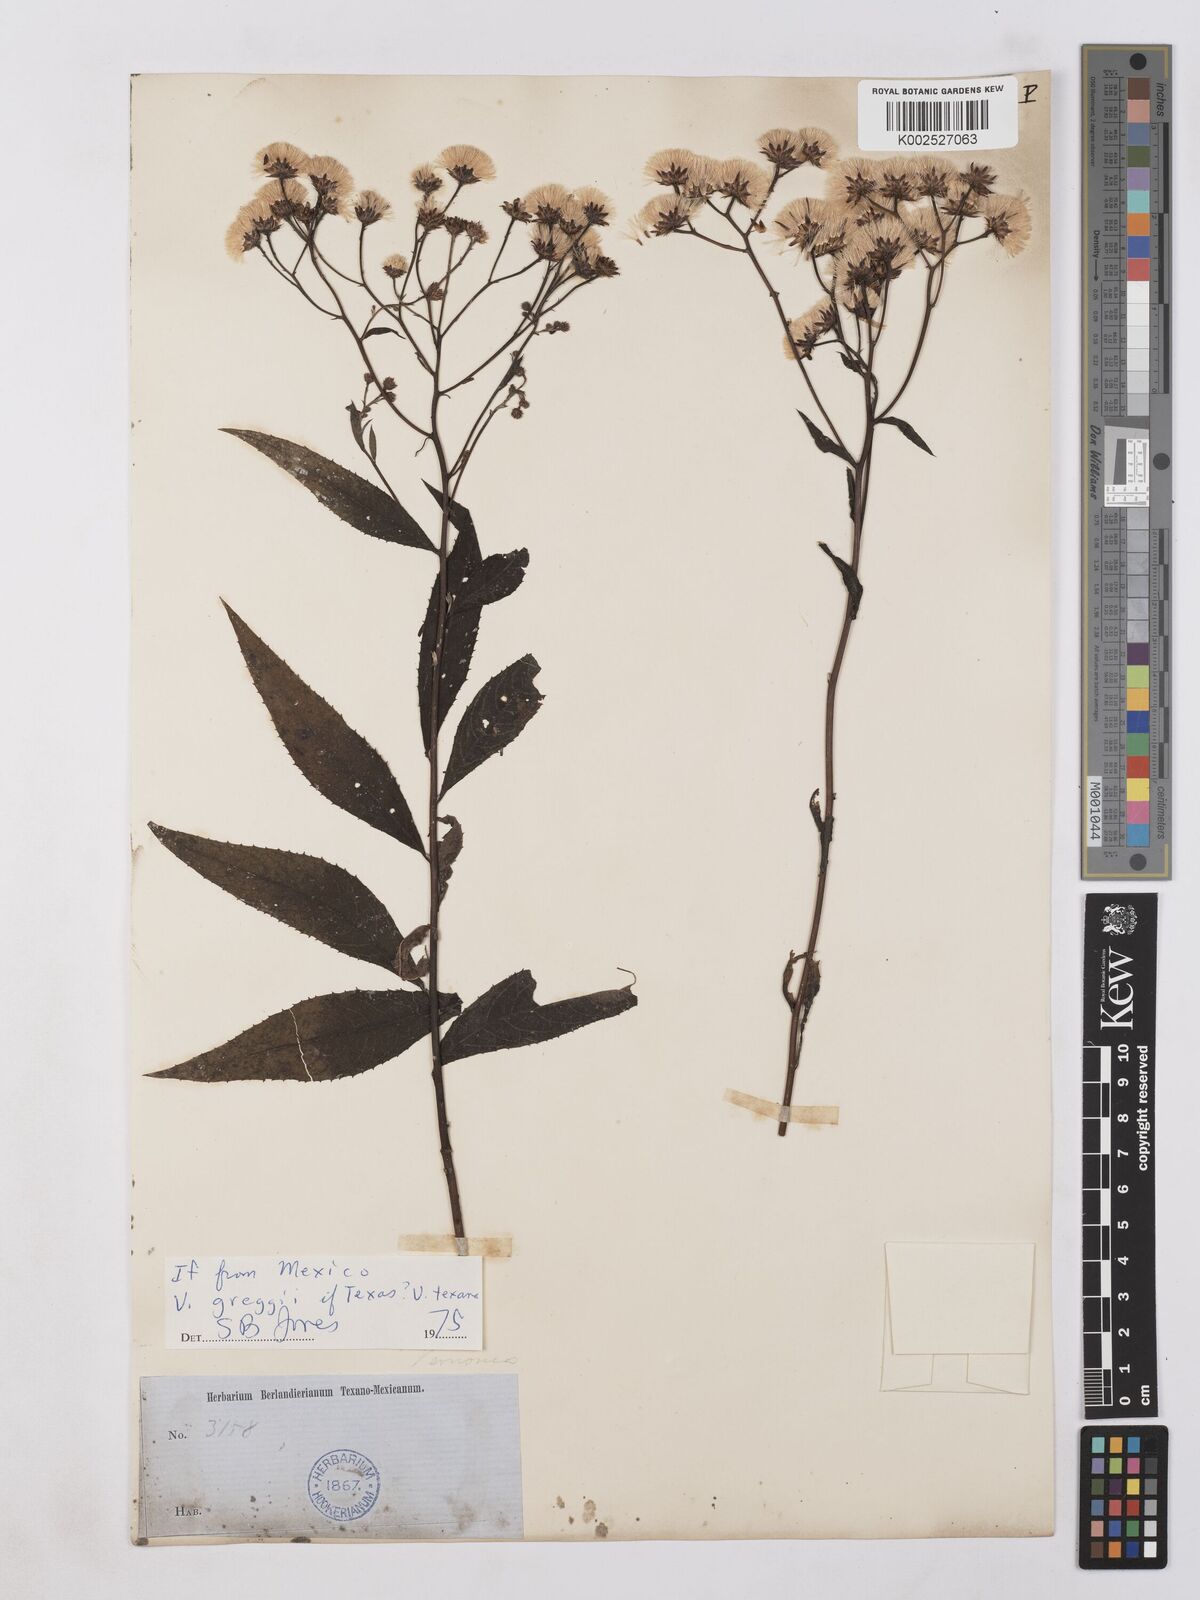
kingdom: Plantae
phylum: Tracheophyta
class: Magnoliopsida
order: Asterales
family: Asteraceae
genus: Vernonia
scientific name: Vernonia
